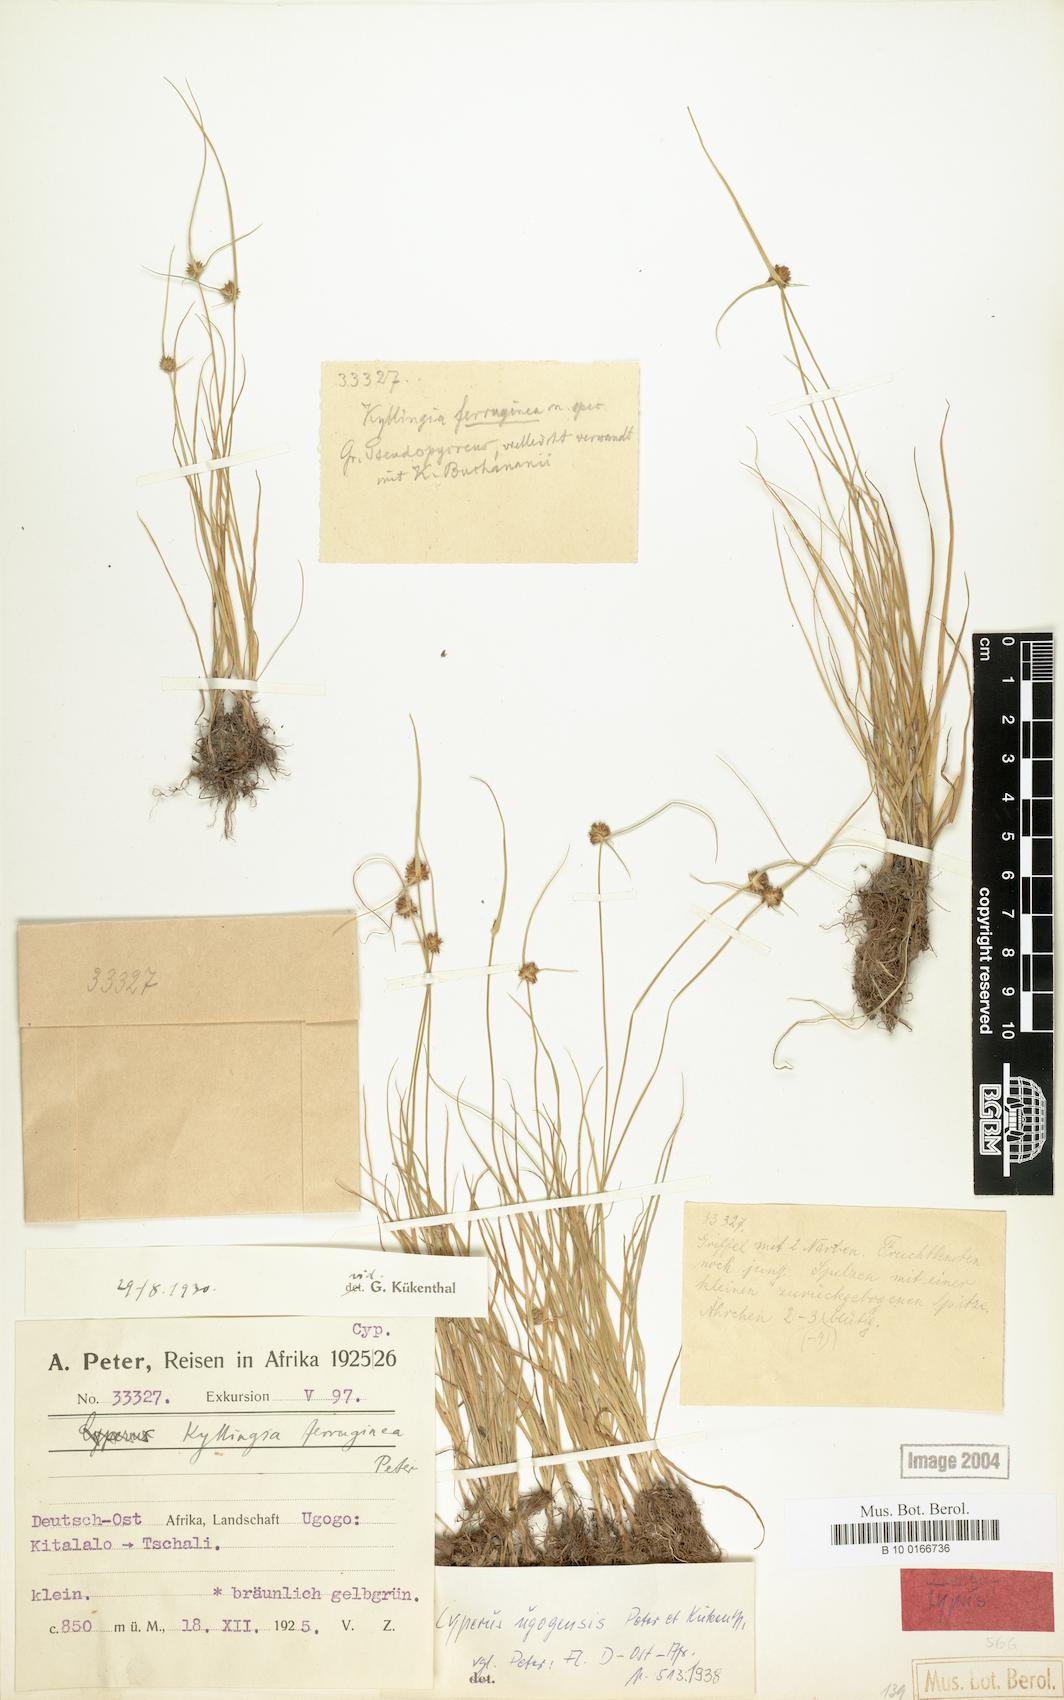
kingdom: Plantae
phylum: Tracheophyta
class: Liliopsida
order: Poales
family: Cyperaceae
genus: Cyperus
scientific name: Cyperus ugogensis
